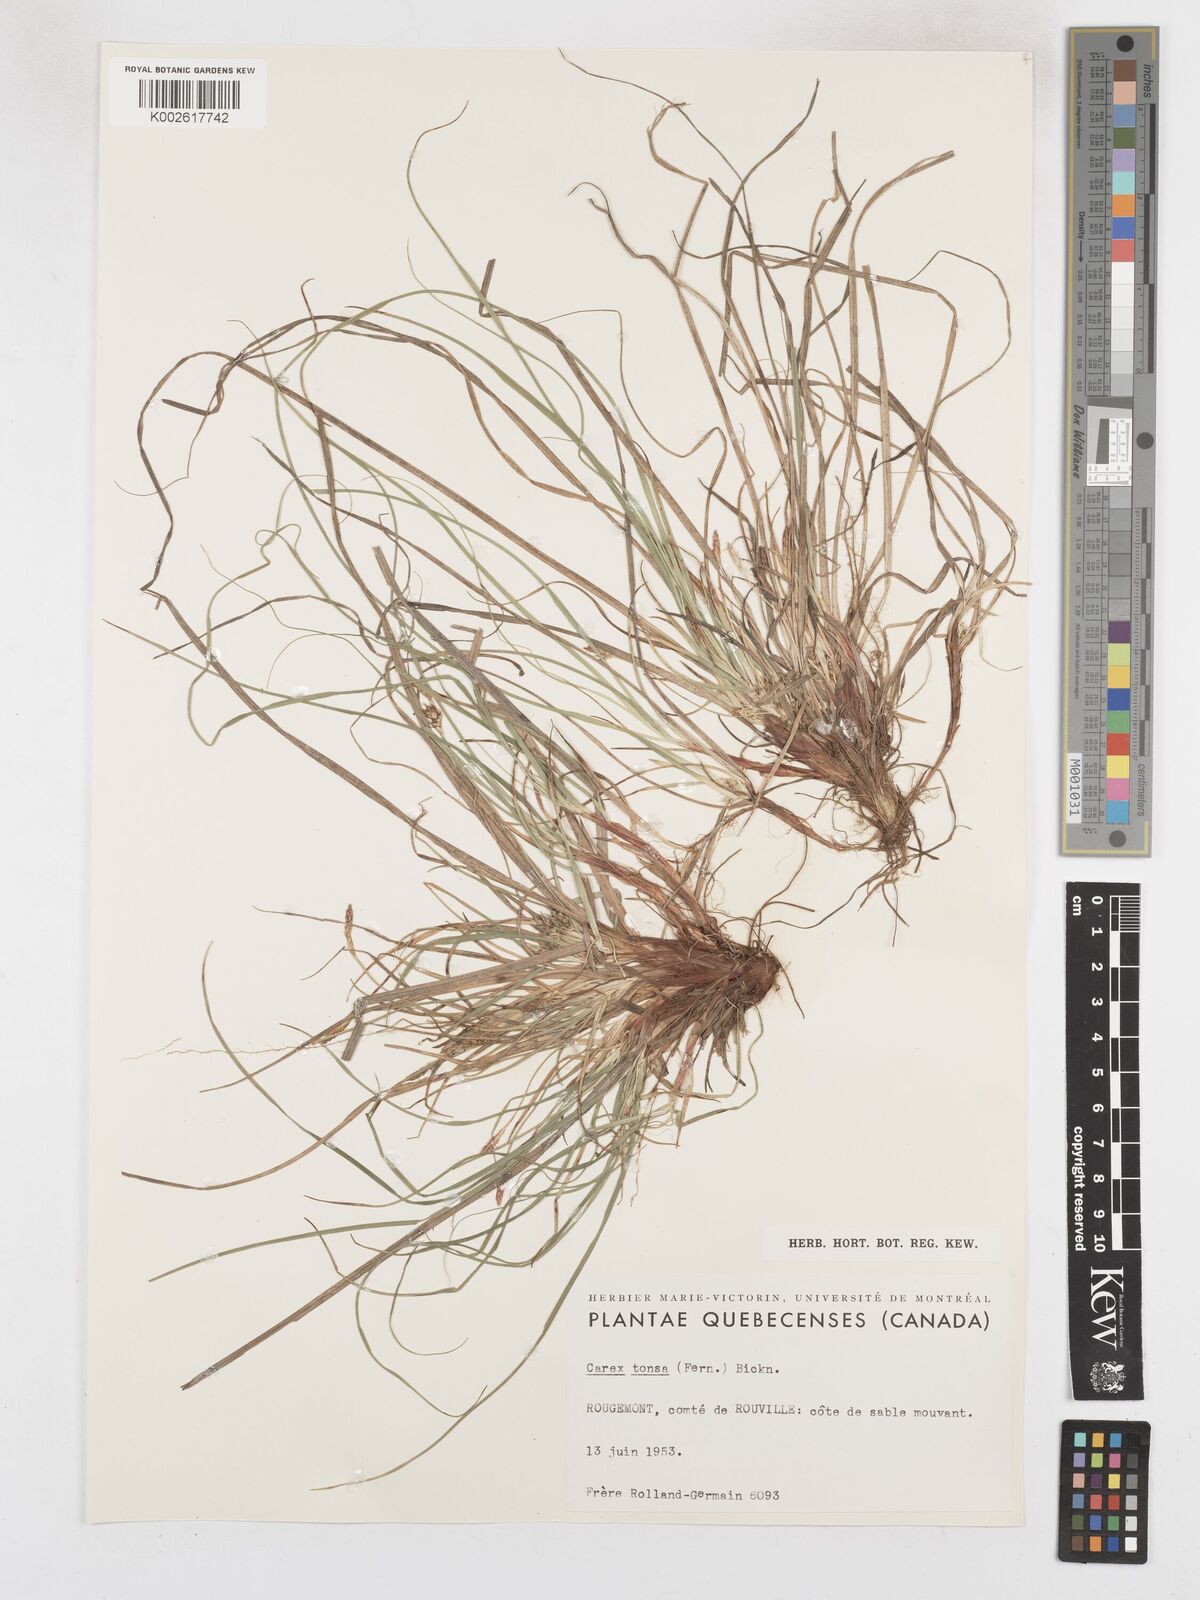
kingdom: Plantae
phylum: Tracheophyta
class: Liliopsida
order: Poales
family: Cyperaceae
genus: Carex
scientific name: Carex tonsa
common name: Bald sedge
